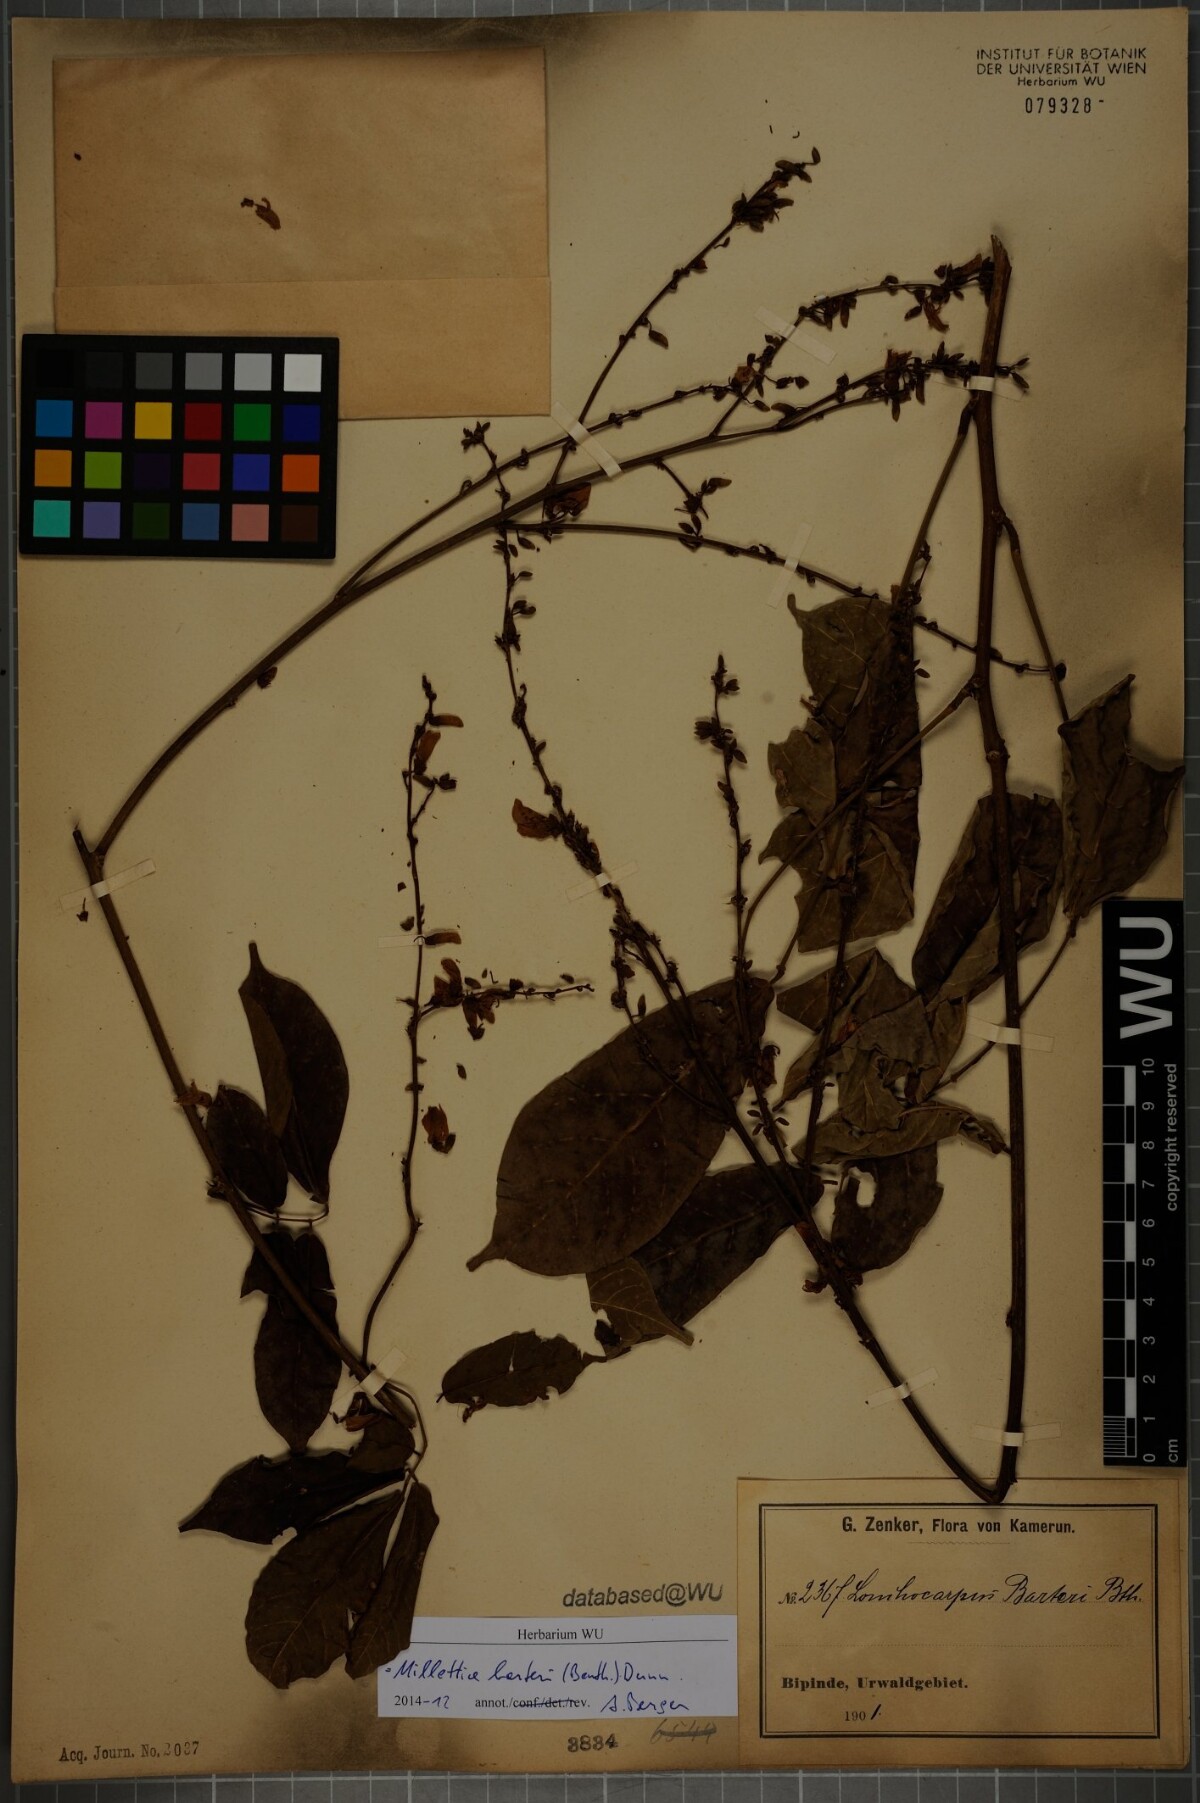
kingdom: Plantae
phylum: Tracheophyta
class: Magnoliopsida
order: Fabales
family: Fabaceae
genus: Millettia
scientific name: Millettia barteri
